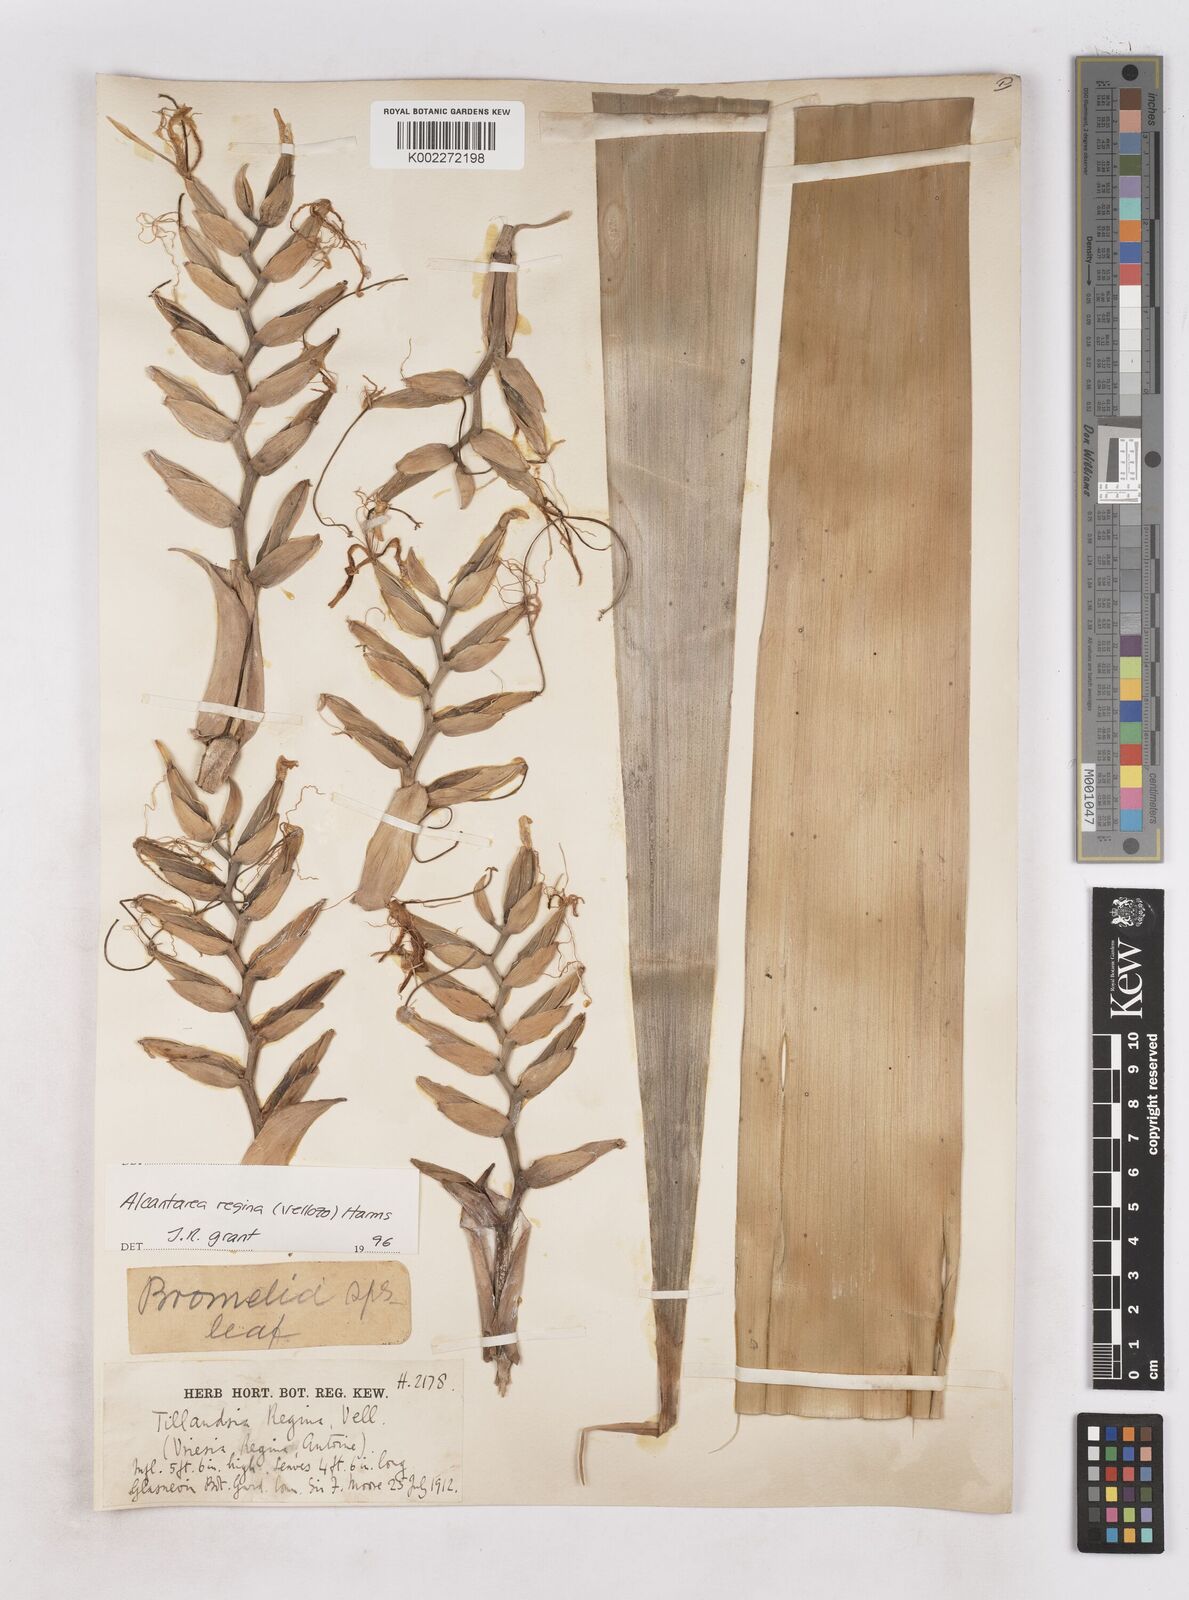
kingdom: Plantae
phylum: Tracheophyta
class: Liliopsida
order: Poales
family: Bromeliaceae
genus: Alcantarea
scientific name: Alcantarea regina
